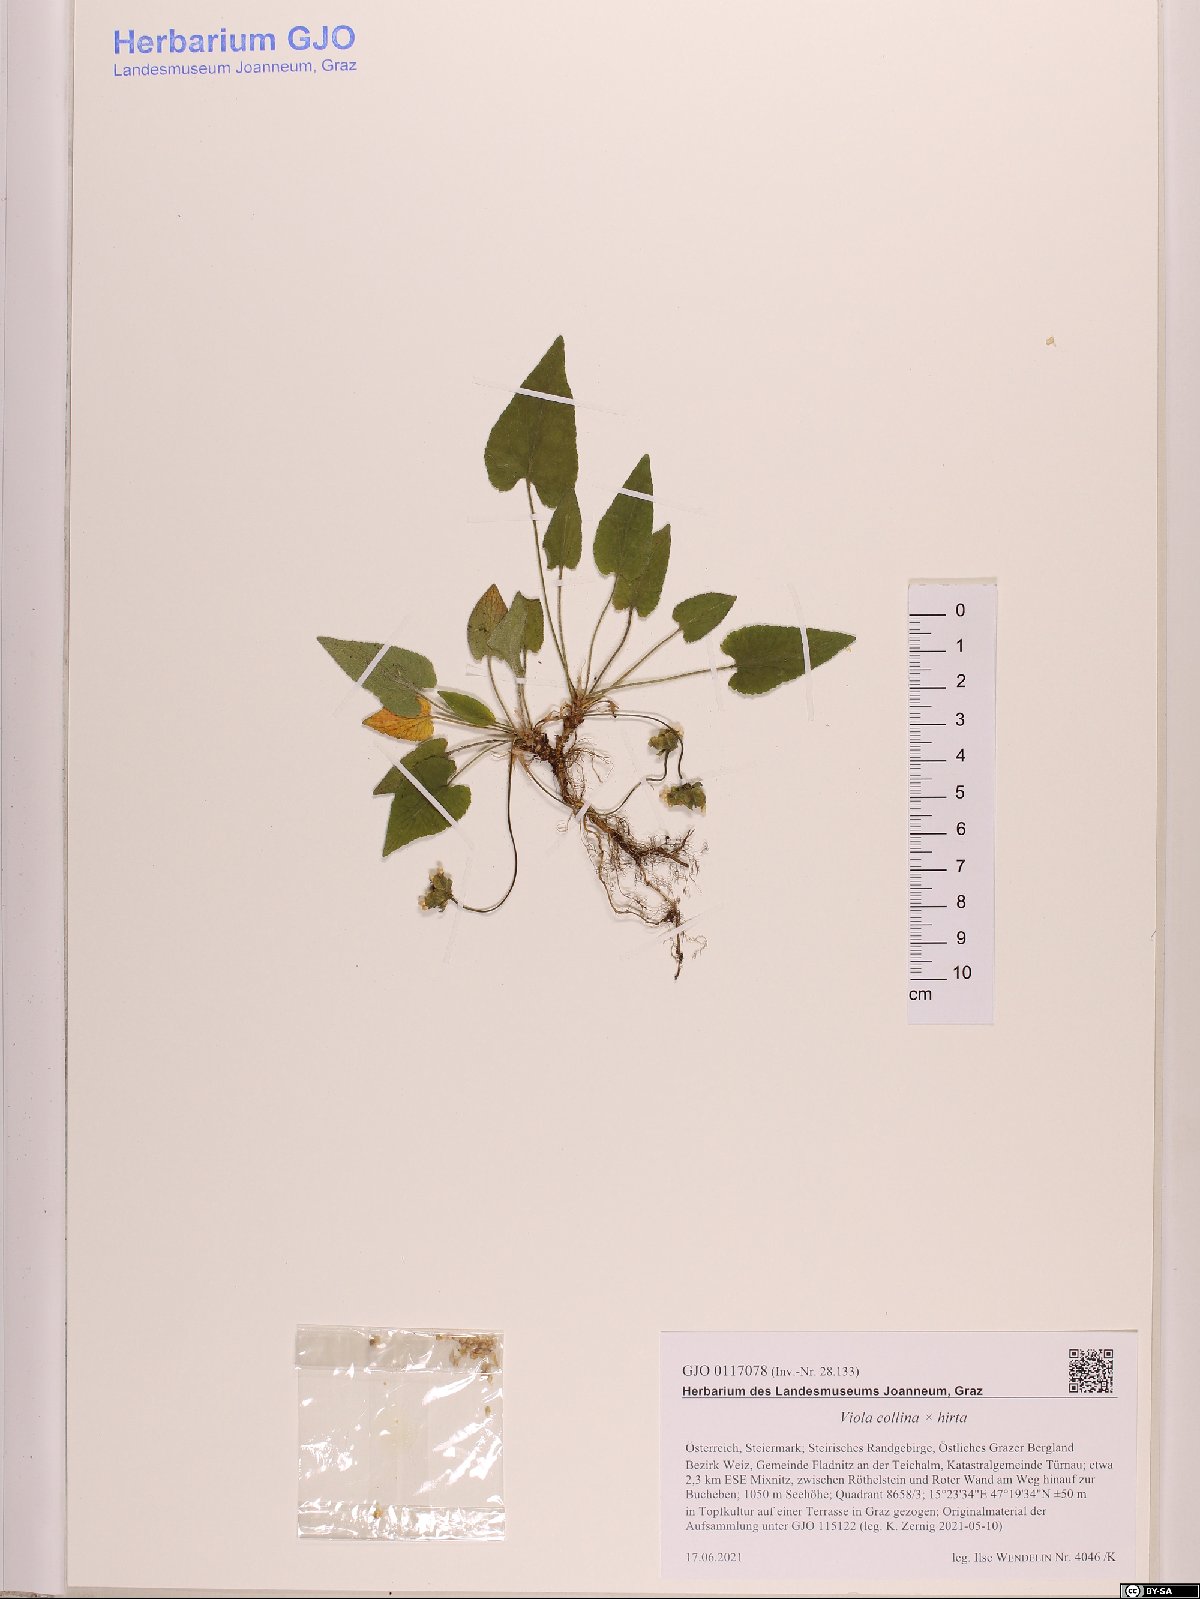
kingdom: Plantae
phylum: Tracheophyta
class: Magnoliopsida
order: Malpighiales
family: Violaceae
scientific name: Violaceae
